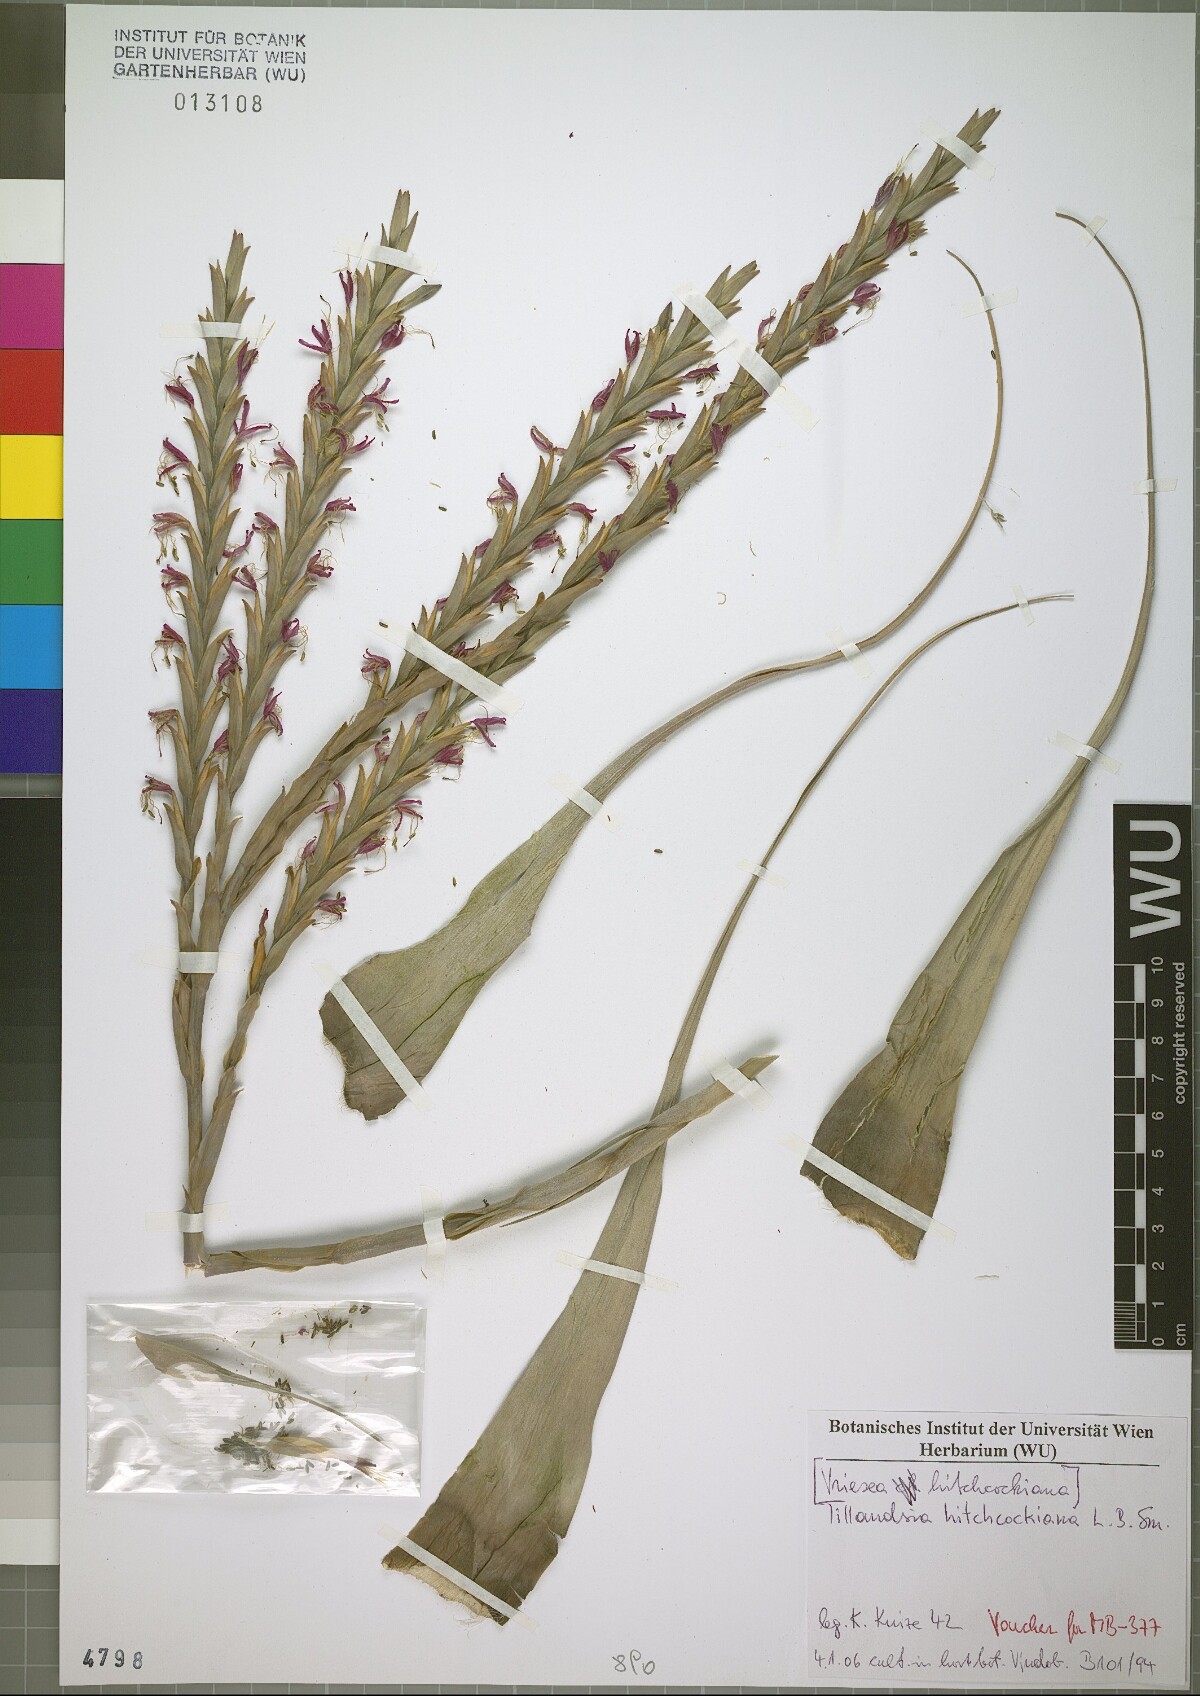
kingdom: Plantae
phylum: Tracheophyta
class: Liliopsida
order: Poales
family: Bromeliaceae
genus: Vriesea
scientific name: Vriesea hitchcockiana
